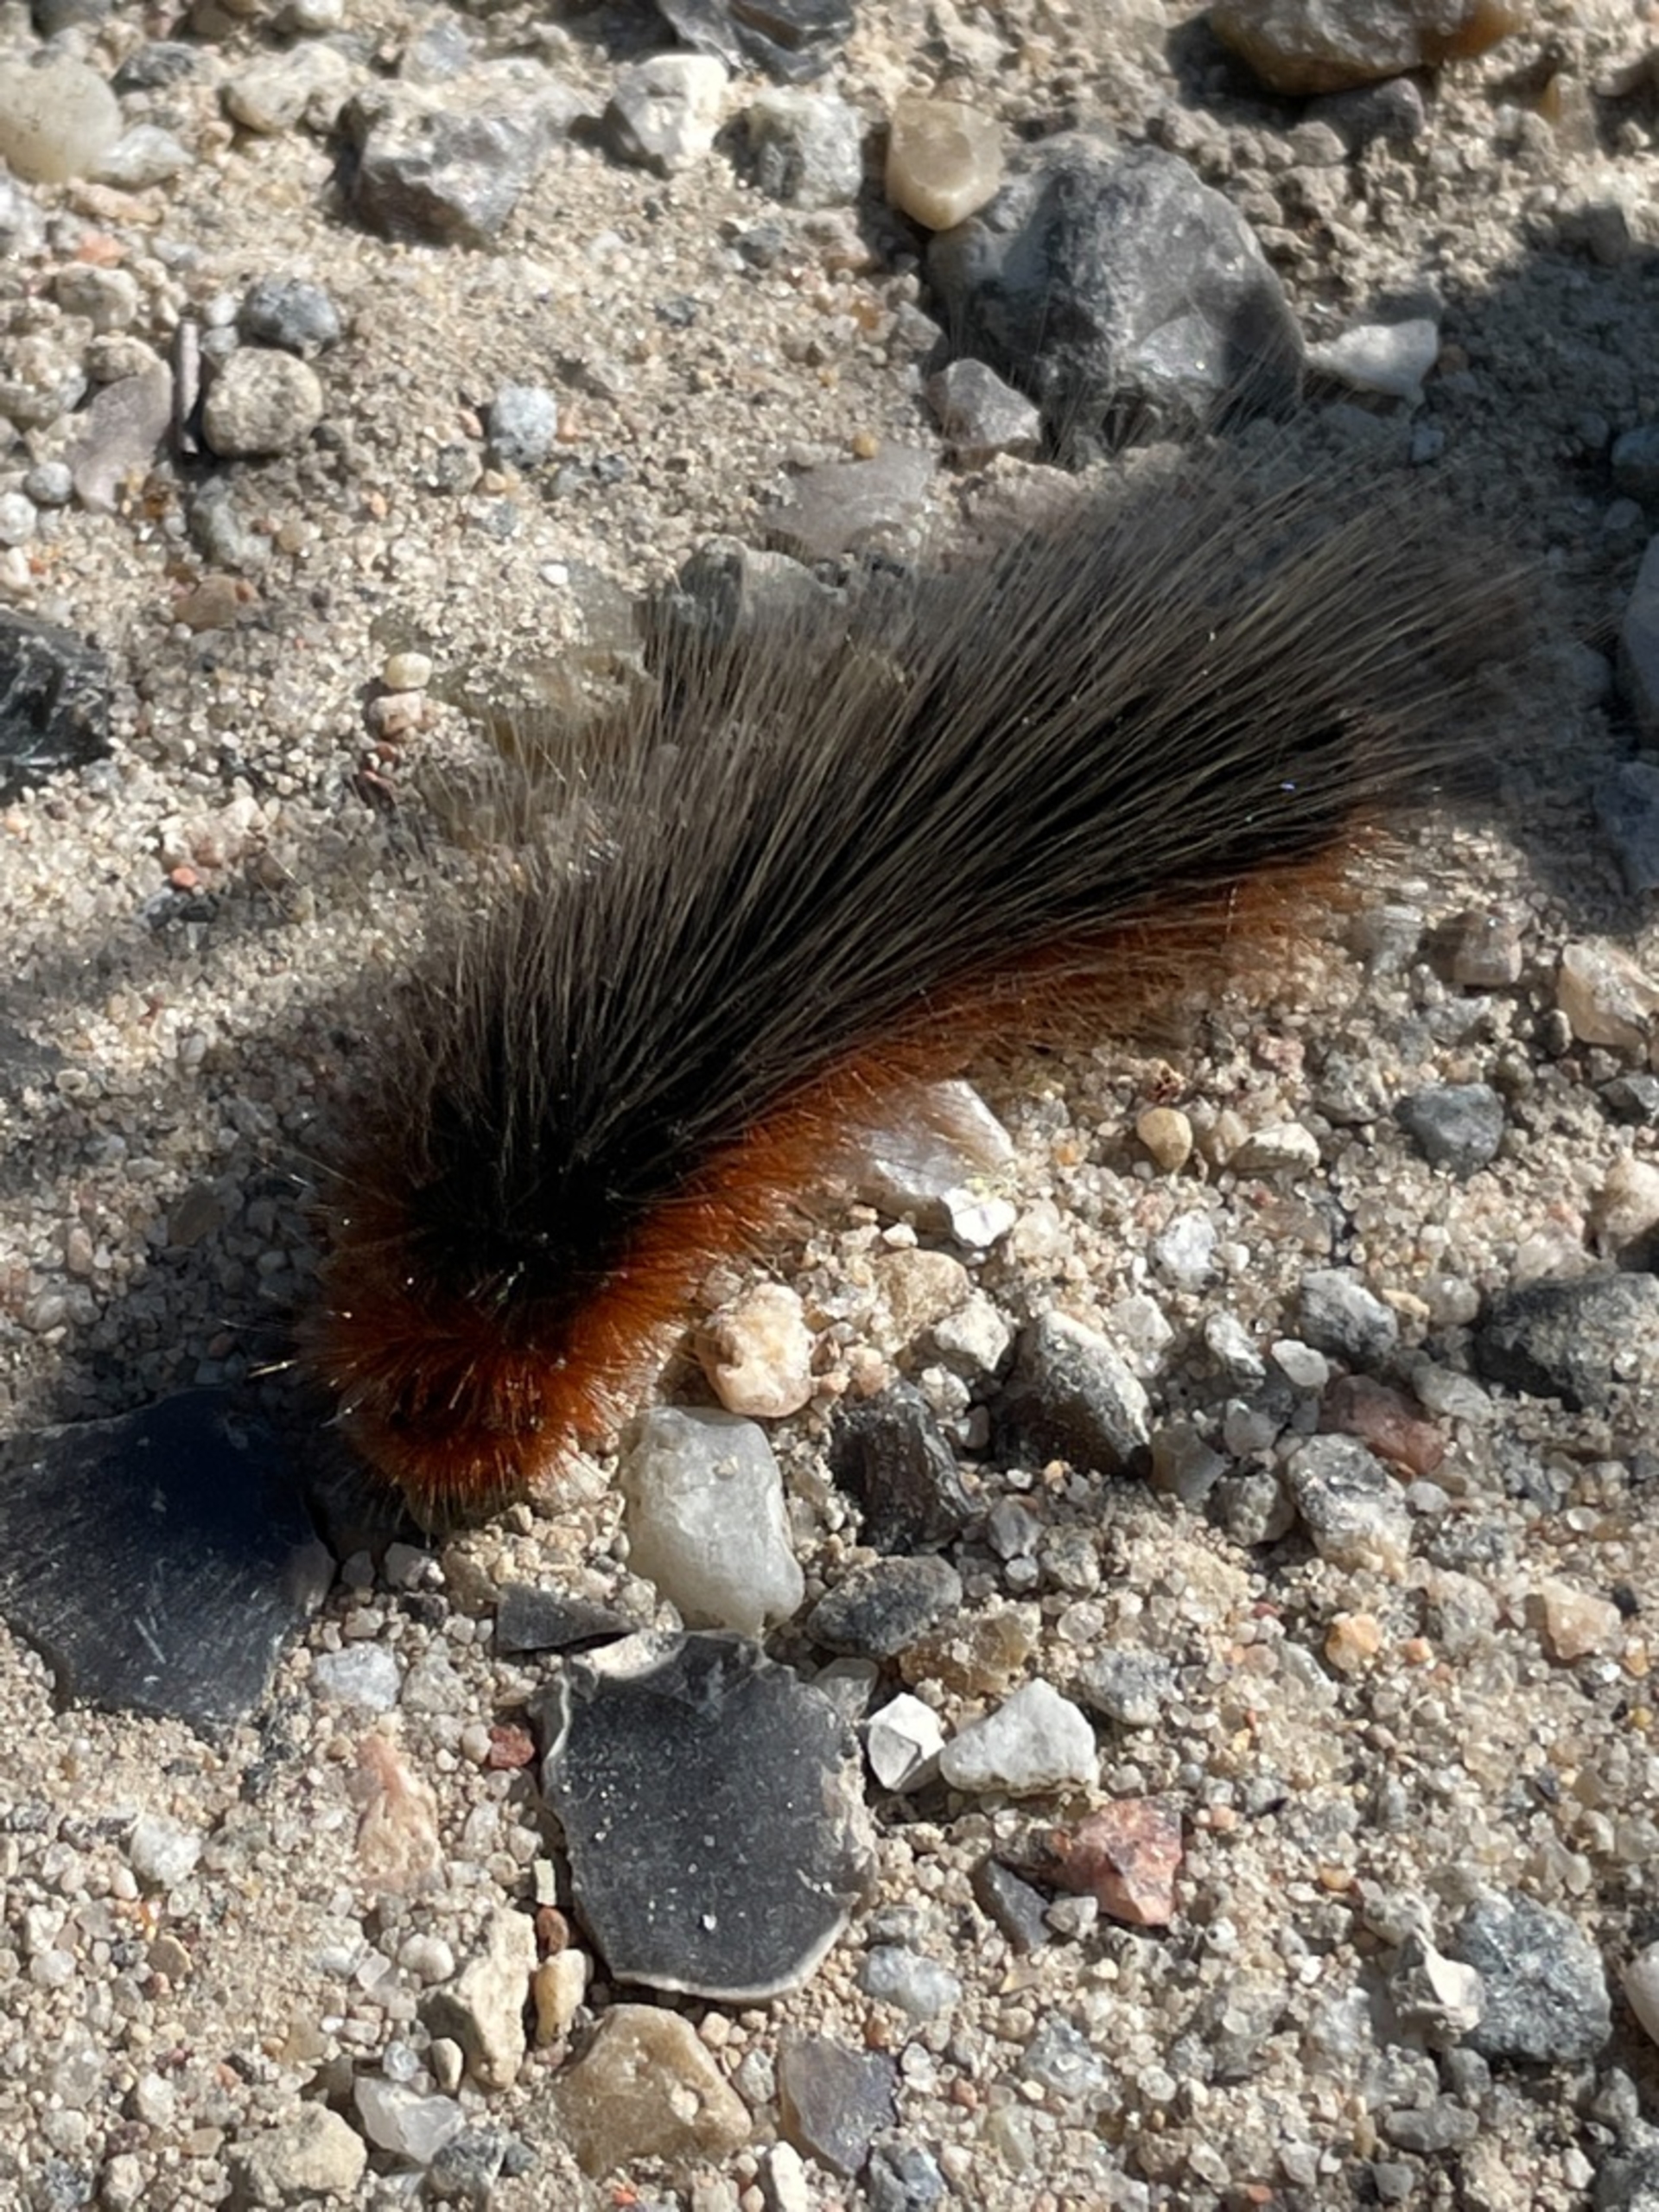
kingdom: Animalia
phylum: Arthropoda
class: Insecta
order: Lepidoptera
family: Erebidae
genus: Arctia
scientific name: Arctia caja
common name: Brun bjørn
